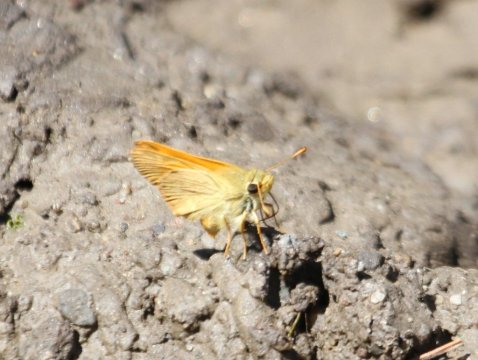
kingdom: Animalia
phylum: Arthropoda
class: Insecta
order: Lepidoptera
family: Hesperiidae
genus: Ochlodes
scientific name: Ochlodes sylvanoides
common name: Woodland Skipper
